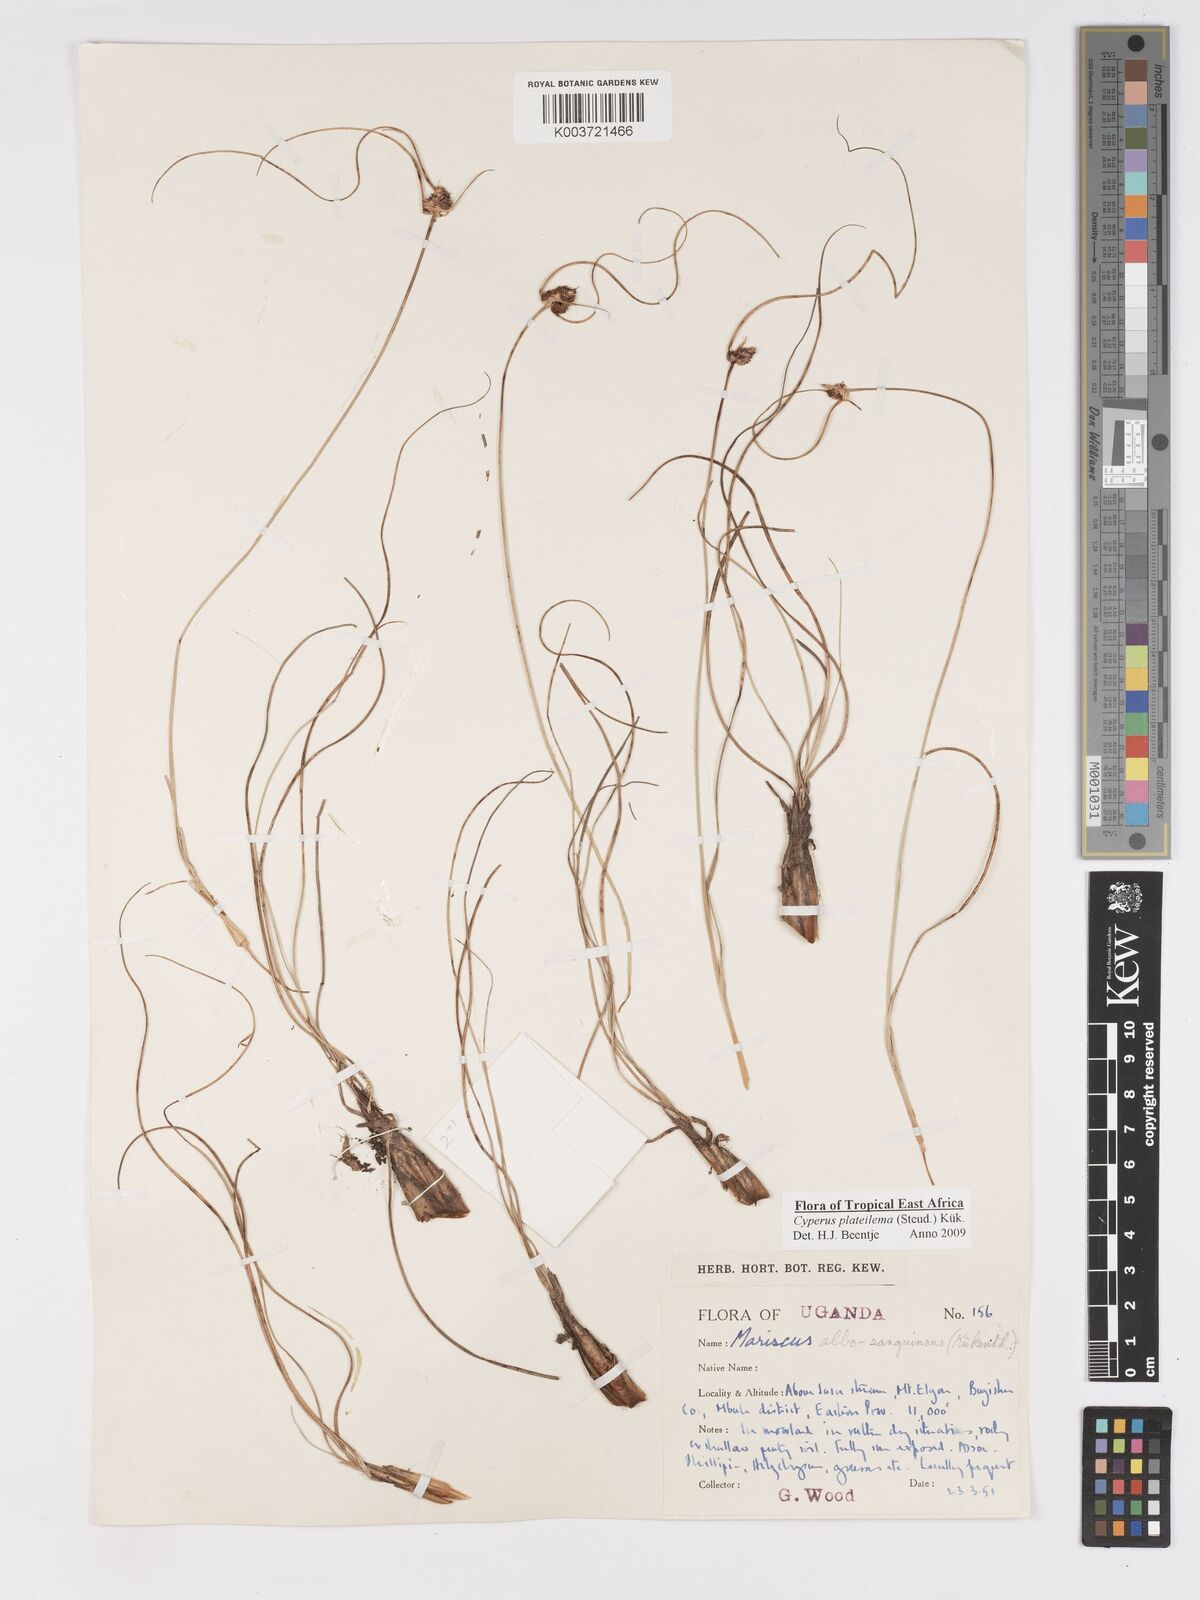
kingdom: Plantae
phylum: Tracheophyta
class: Liliopsida
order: Poales
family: Cyperaceae
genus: Cyperus
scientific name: Cyperus plateilema
